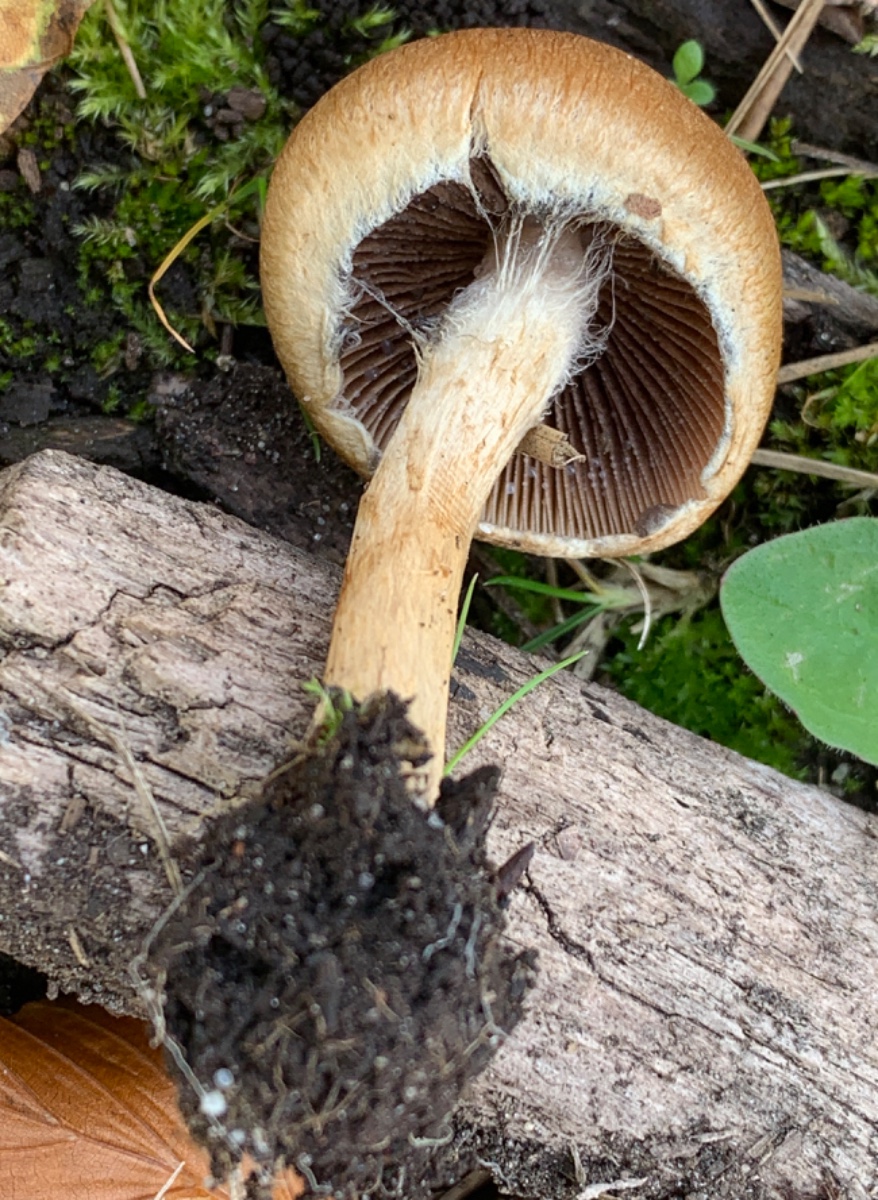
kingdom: Fungi
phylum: Basidiomycota
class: Agaricomycetes
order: Agaricales
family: Psathyrellaceae
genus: Lacrymaria
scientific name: Lacrymaria lacrymabunda
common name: grædende mørkhat
